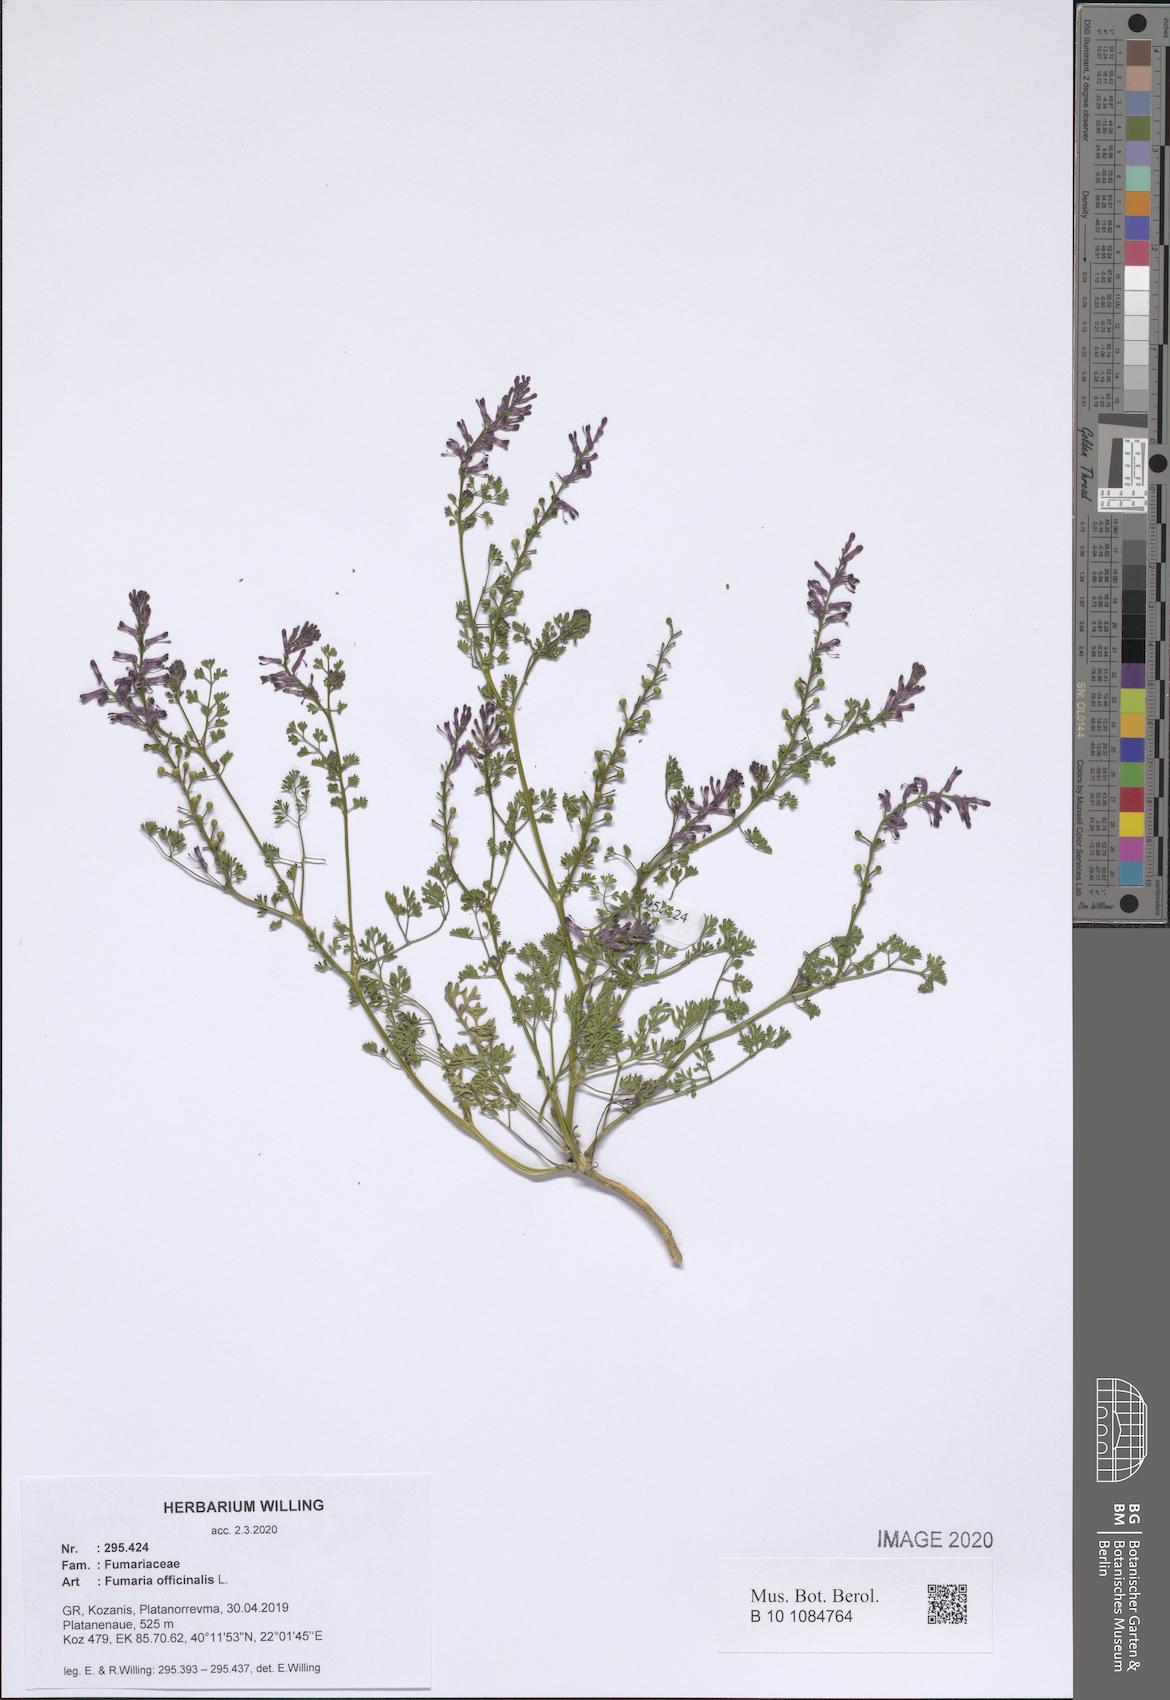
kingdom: Plantae
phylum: Tracheophyta
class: Magnoliopsida
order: Ranunculales
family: Papaveraceae
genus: Fumaria
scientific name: Fumaria officinalis
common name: Common fumitory
